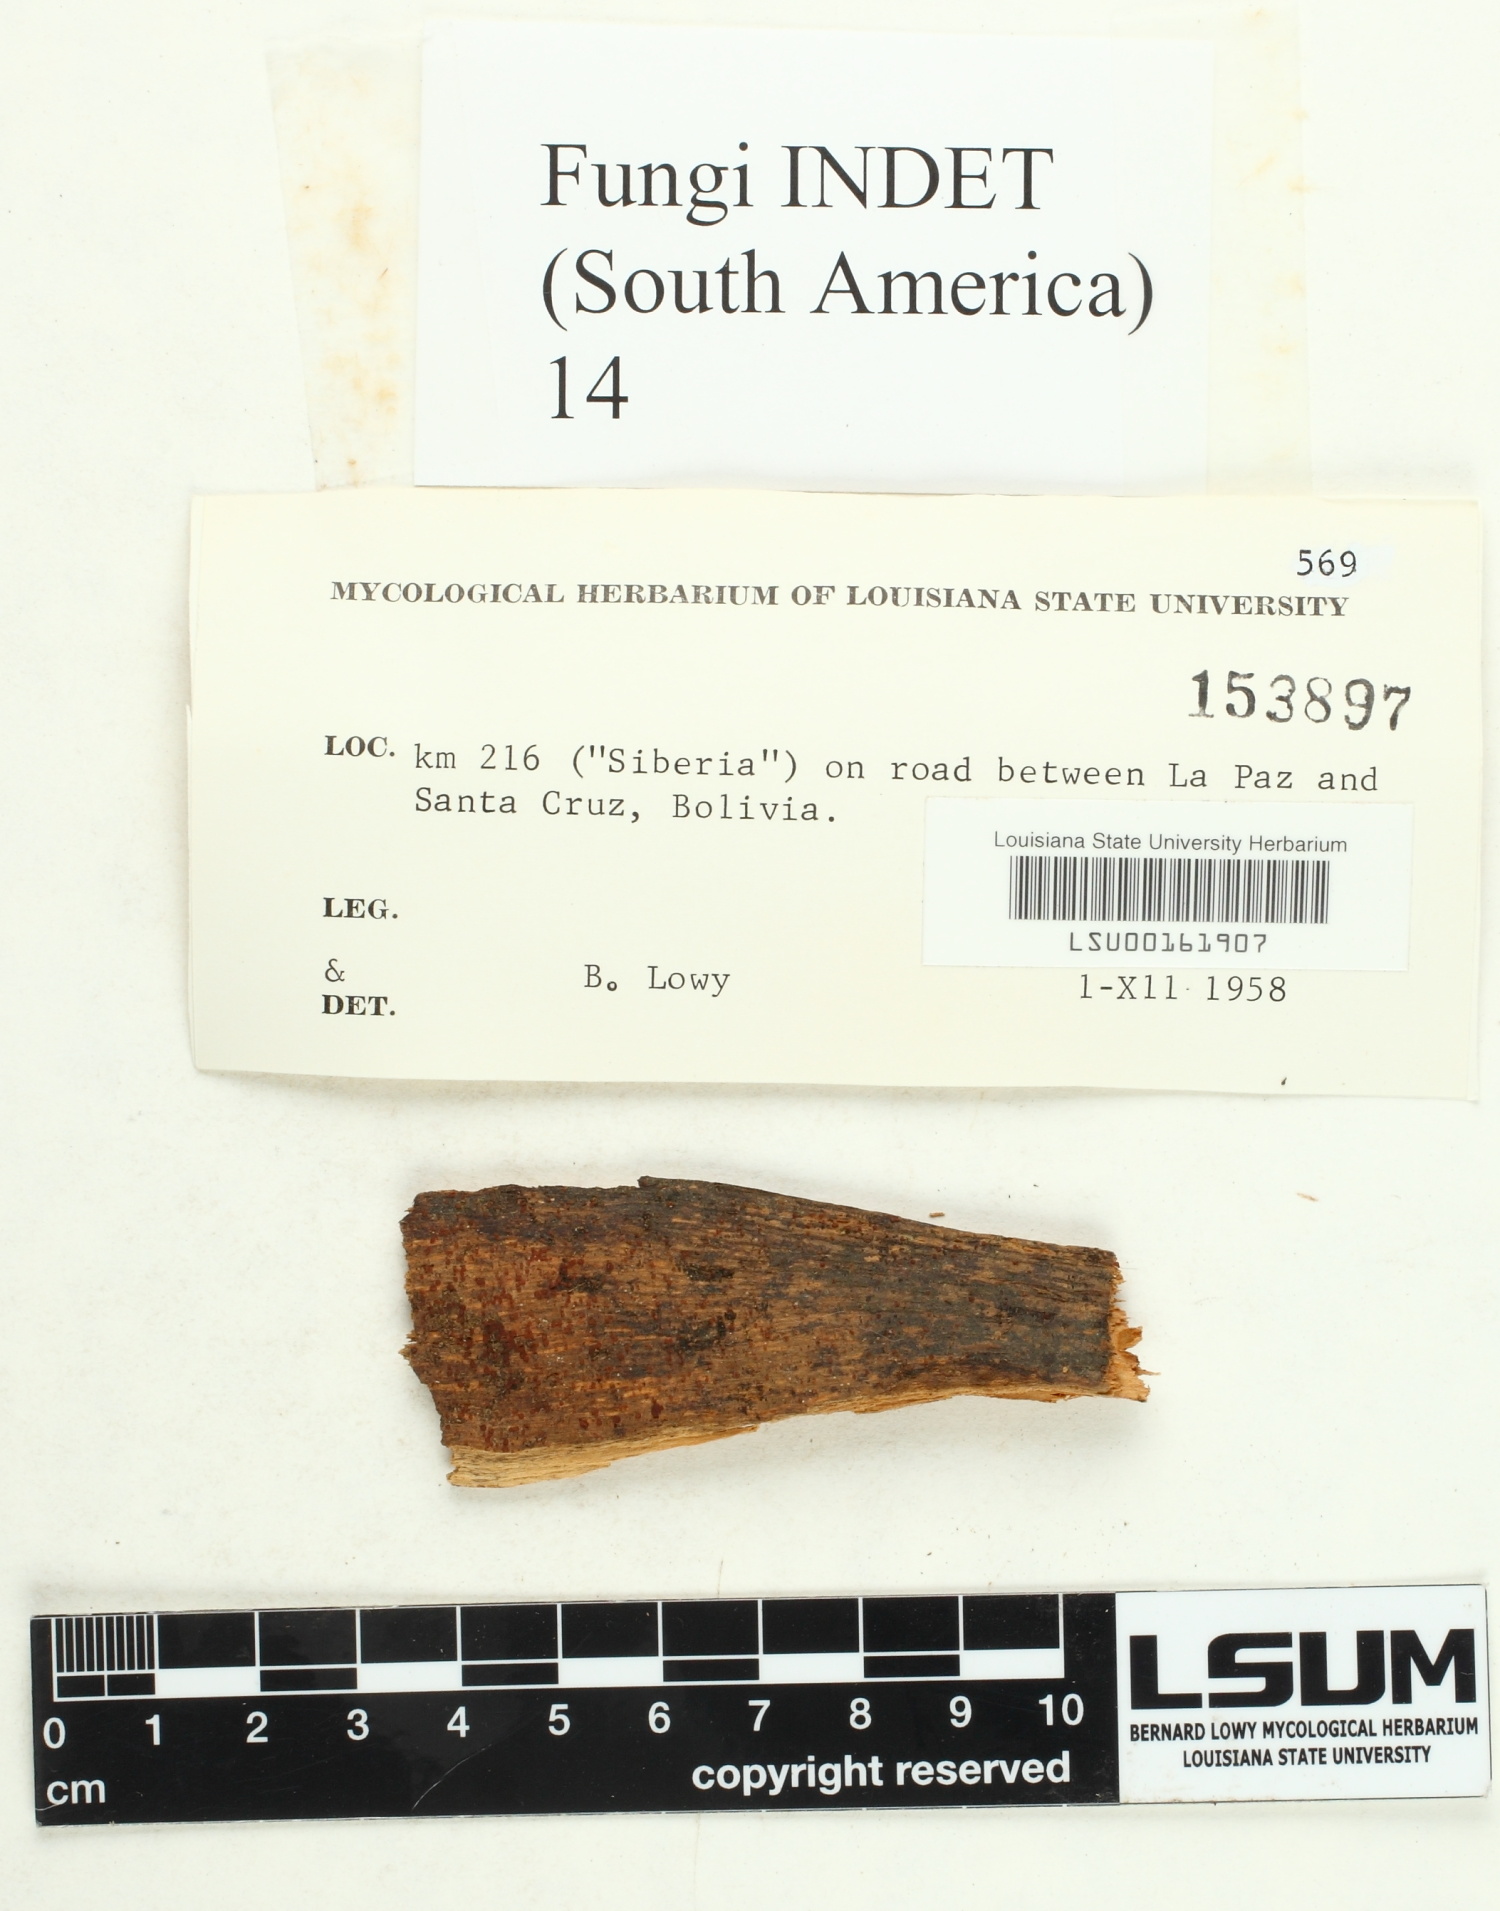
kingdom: Fungi
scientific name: Fungi
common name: Fungi
